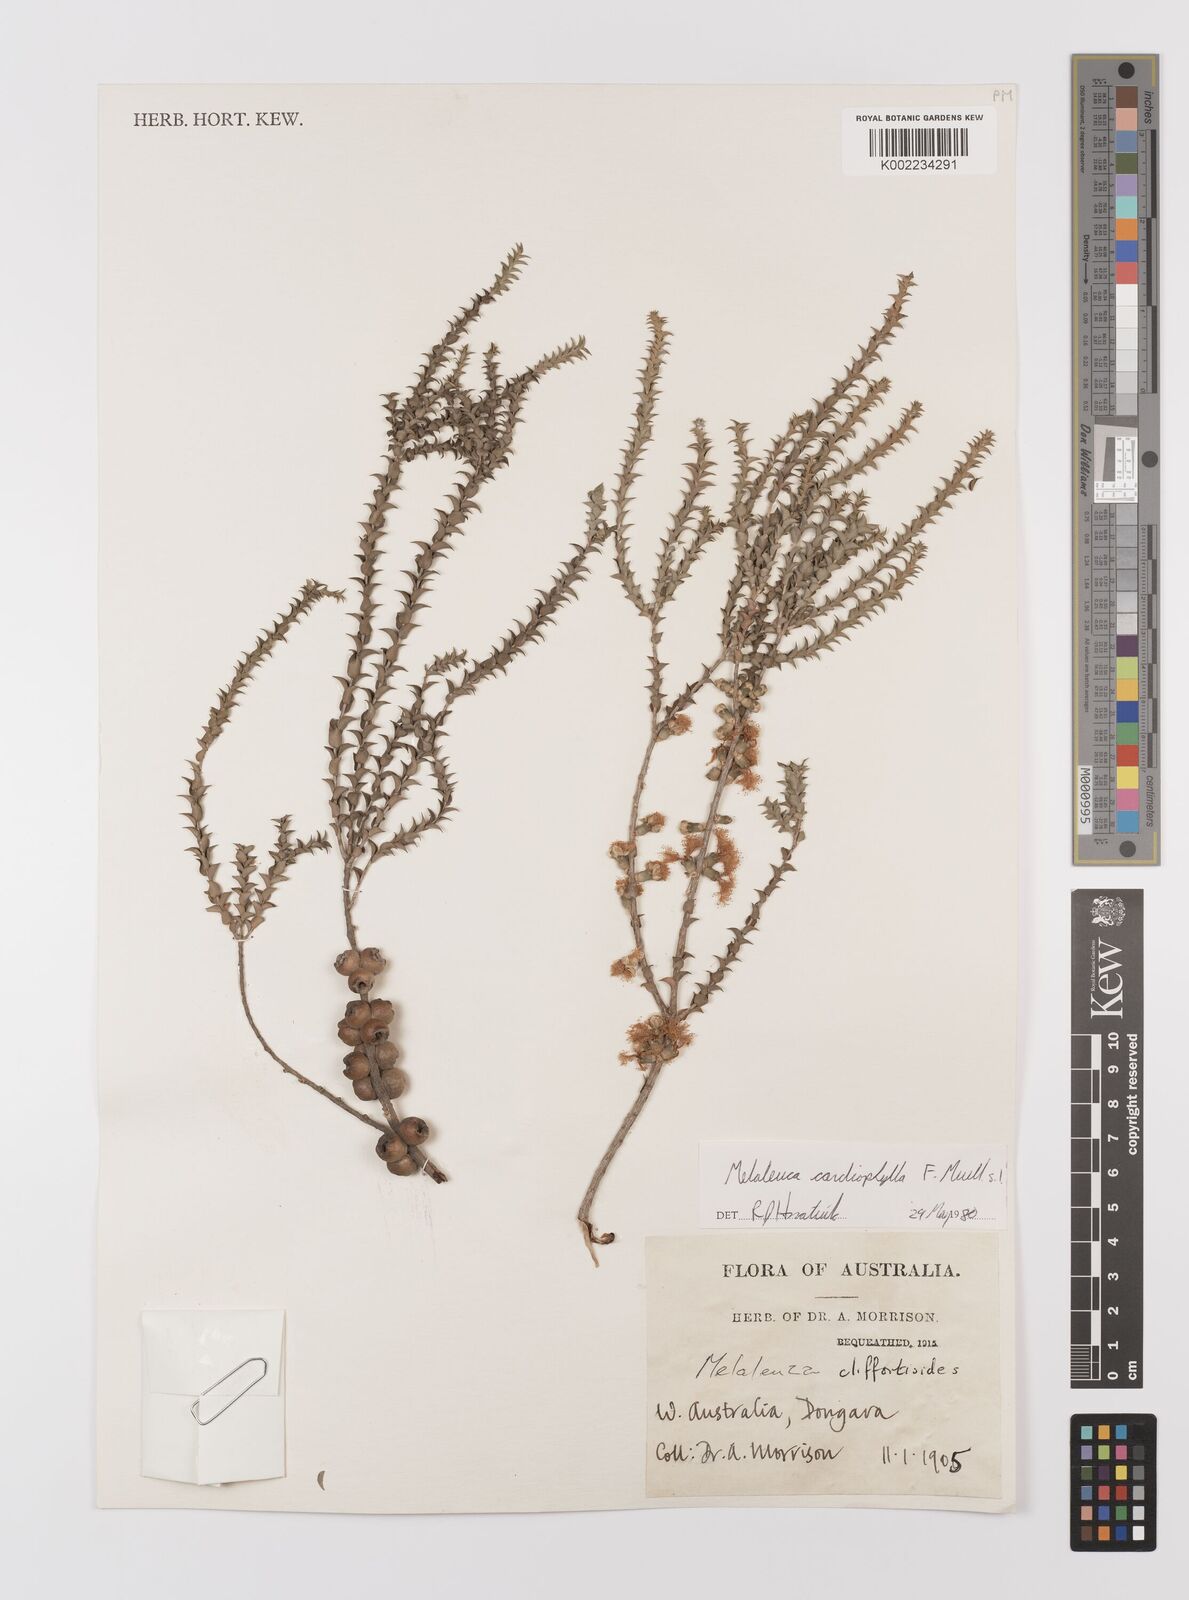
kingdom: Plantae
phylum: Tracheophyta
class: Magnoliopsida
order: Myrtales
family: Myrtaceae
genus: Melaleuca
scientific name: Melaleuca cardiophylla
